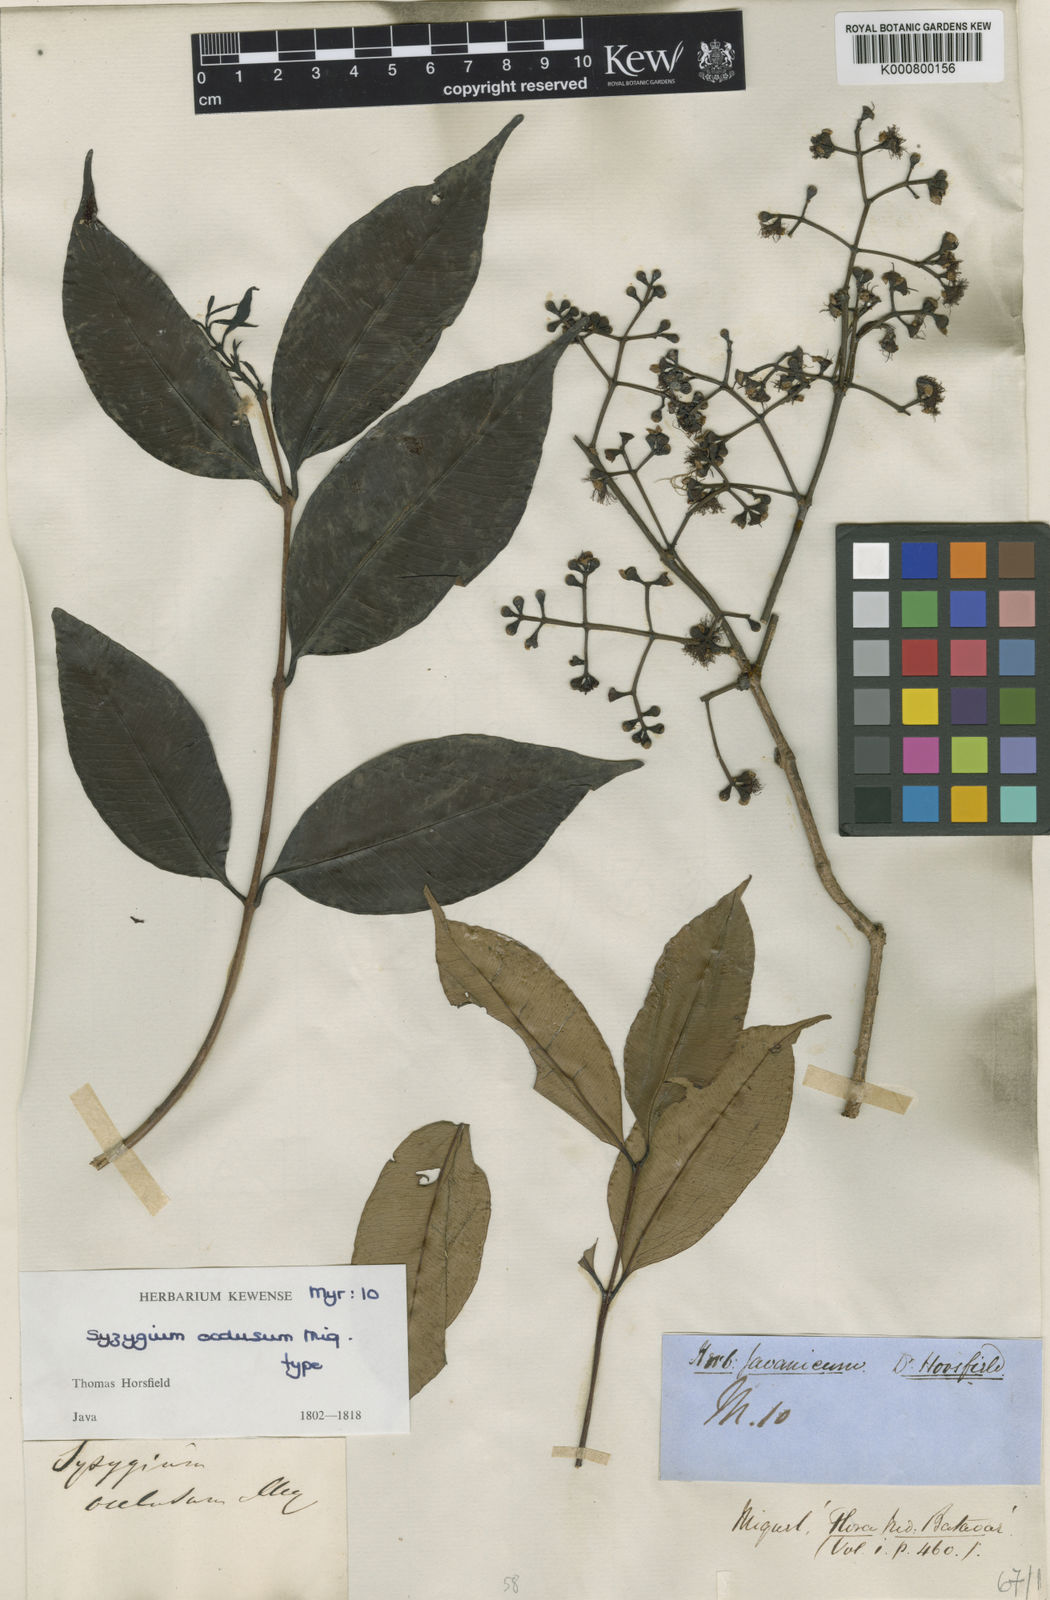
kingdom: Plantae
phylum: Tracheophyta
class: Magnoliopsida
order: Myrtales
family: Myrtaceae
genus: Syzygium
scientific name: Syzygium occlusum
